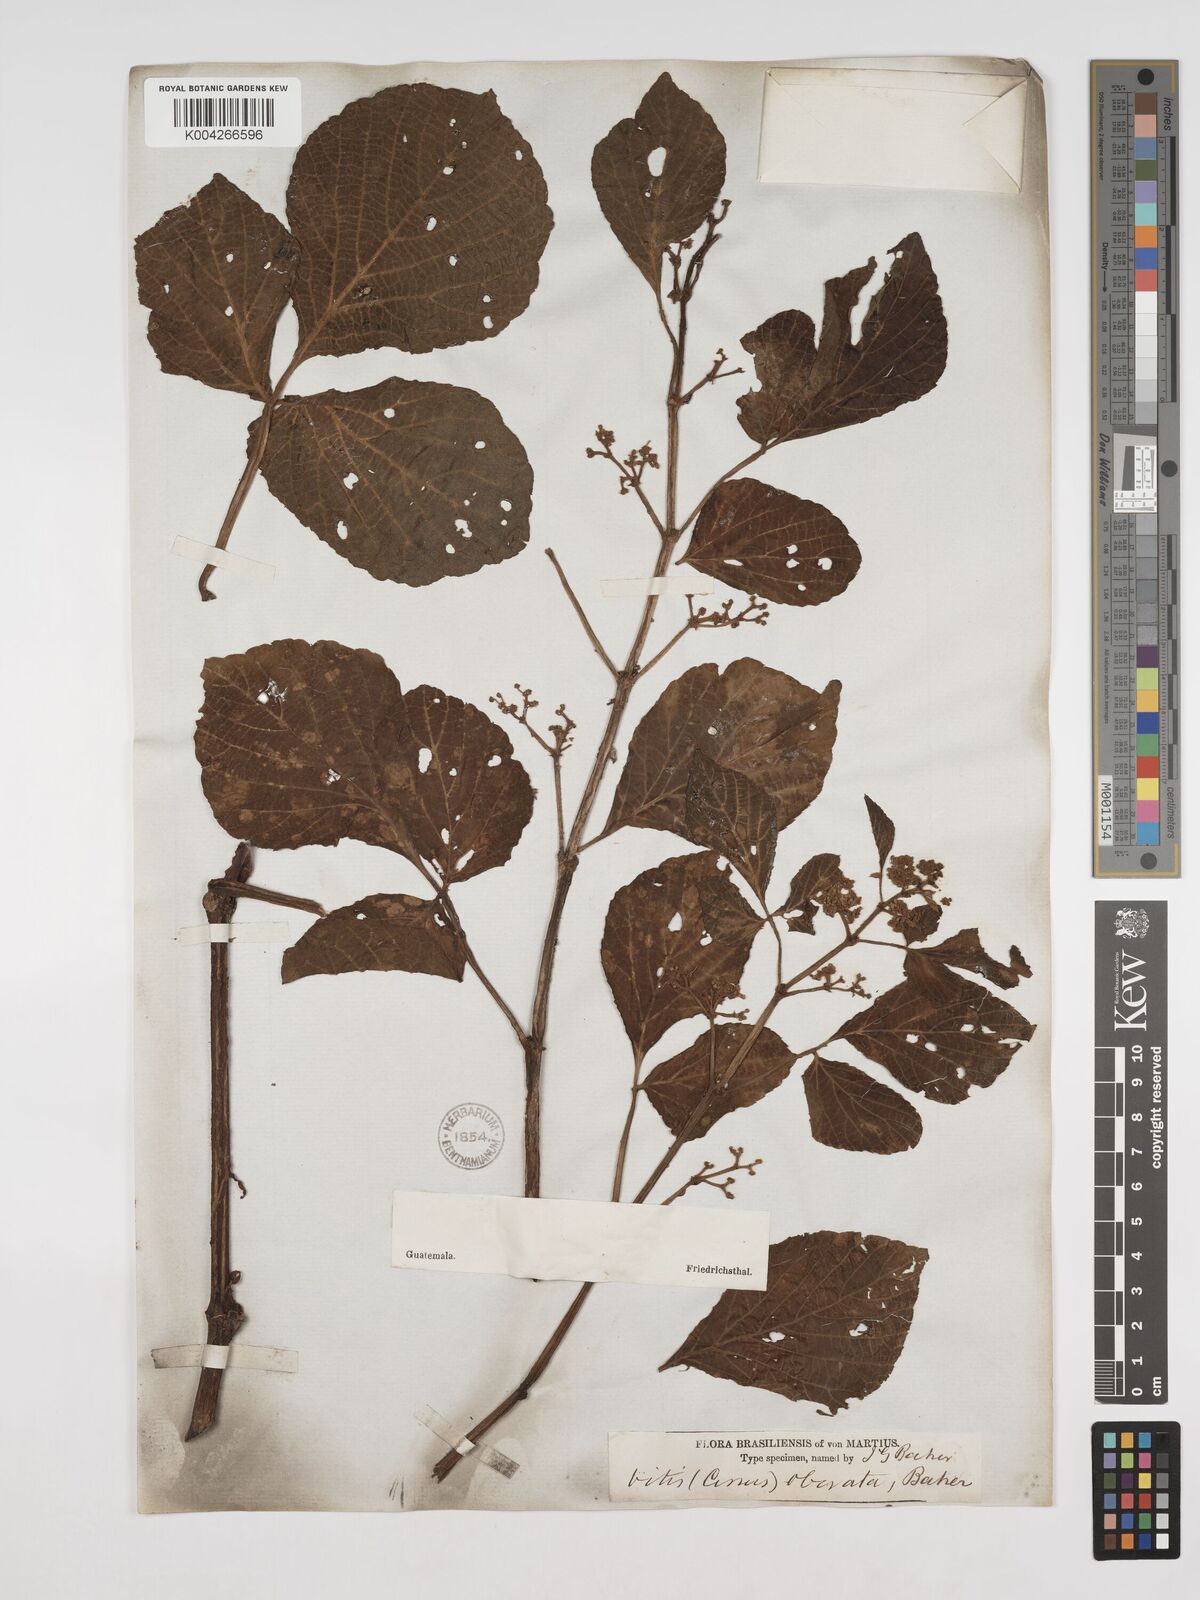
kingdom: Plantae
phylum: Tracheophyta
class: Magnoliopsida
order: Vitales
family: Vitaceae
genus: Cissus
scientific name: Cissus obovata
